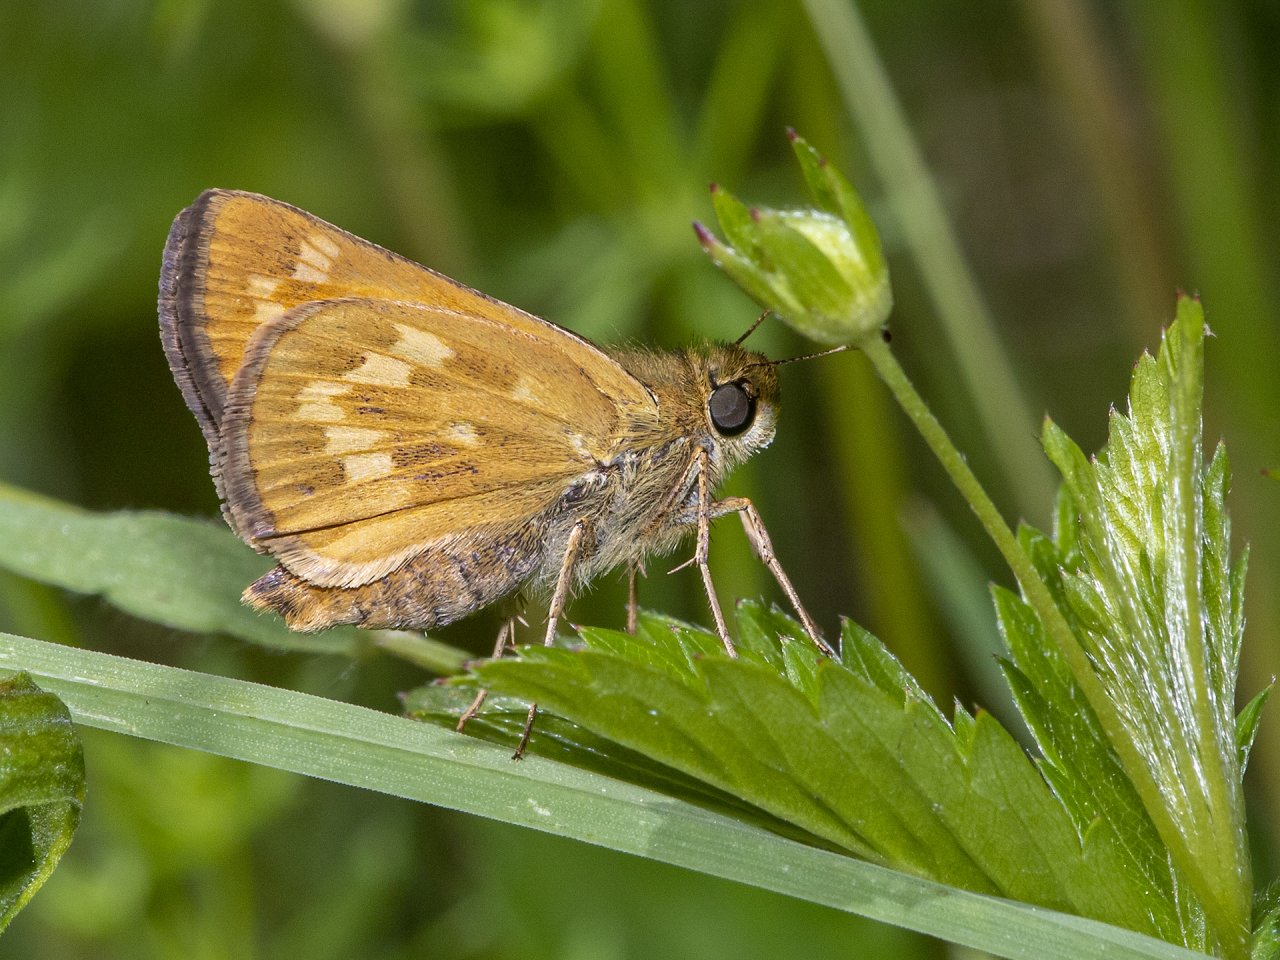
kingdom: Animalia
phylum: Arthropoda
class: Insecta
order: Lepidoptera
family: Hesperiidae
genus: Hesperia
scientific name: Hesperia sassacus
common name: Sassacus Skipper
